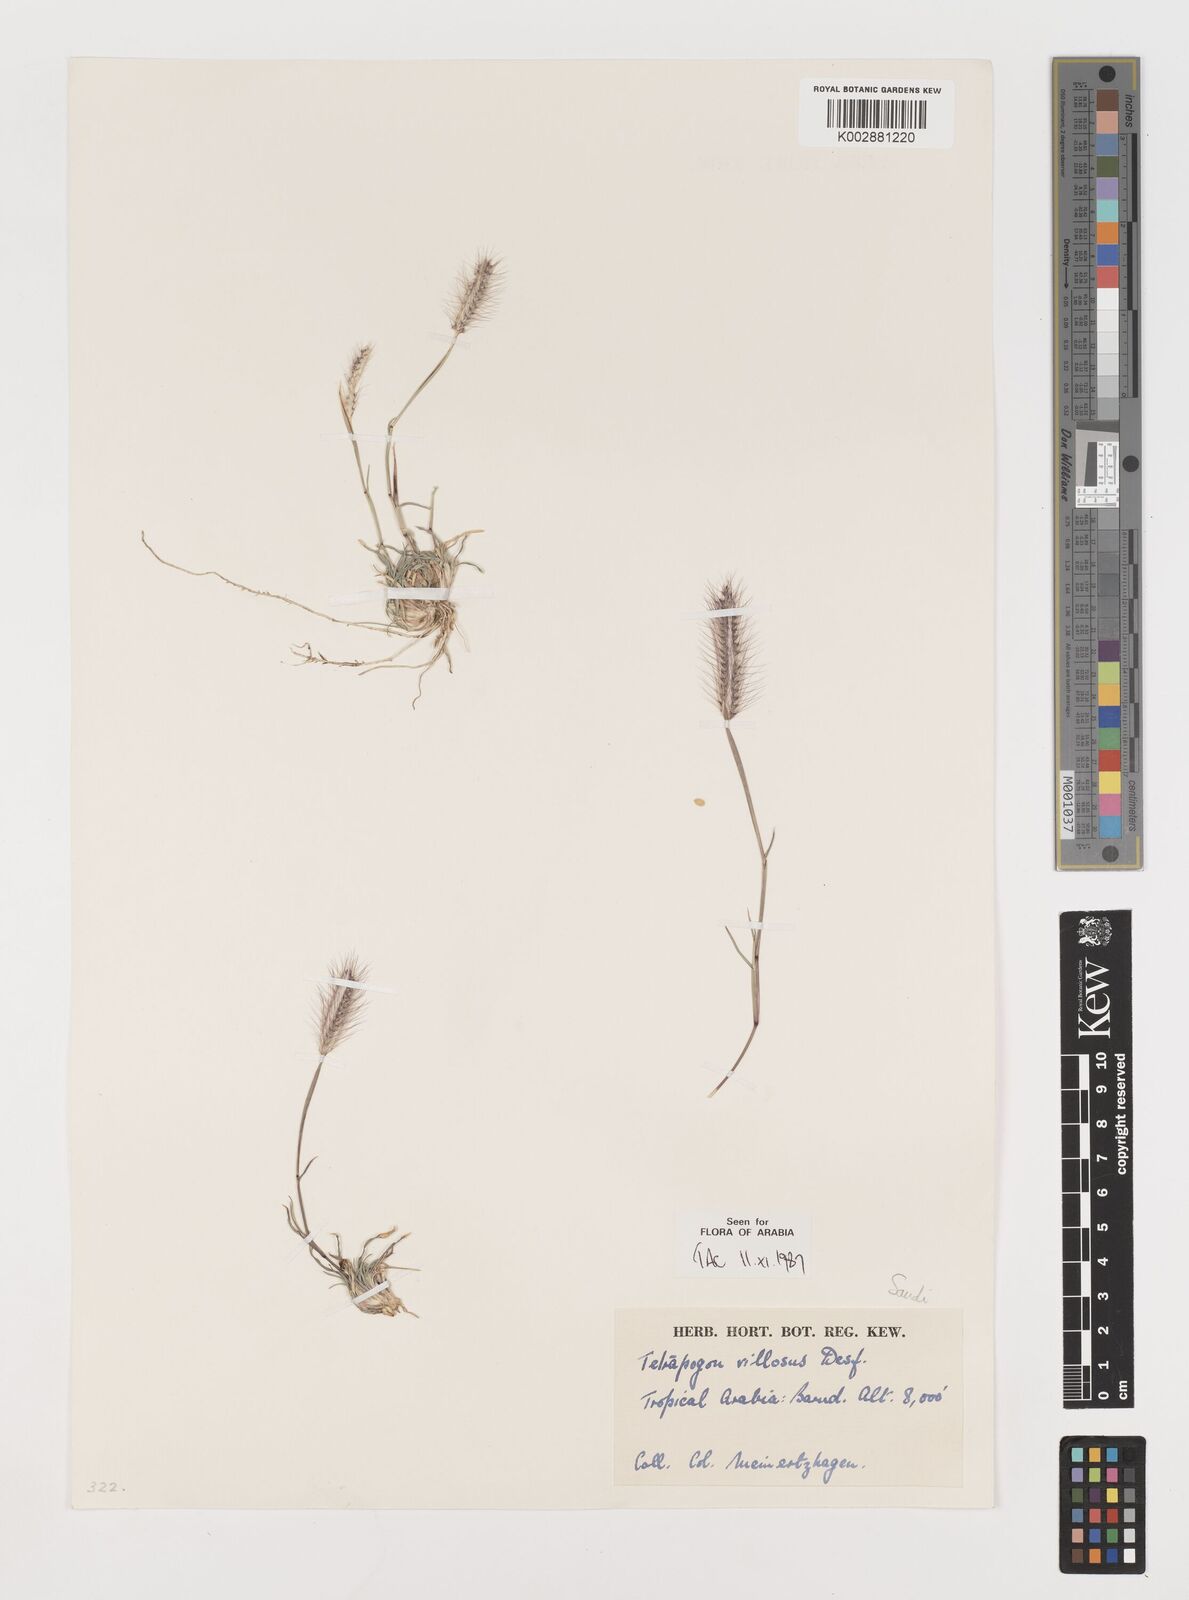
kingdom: Plantae
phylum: Tracheophyta
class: Liliopsida
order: Poales
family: Poaceae
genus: Tetrapogon
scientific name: Tetrapogon villosus
